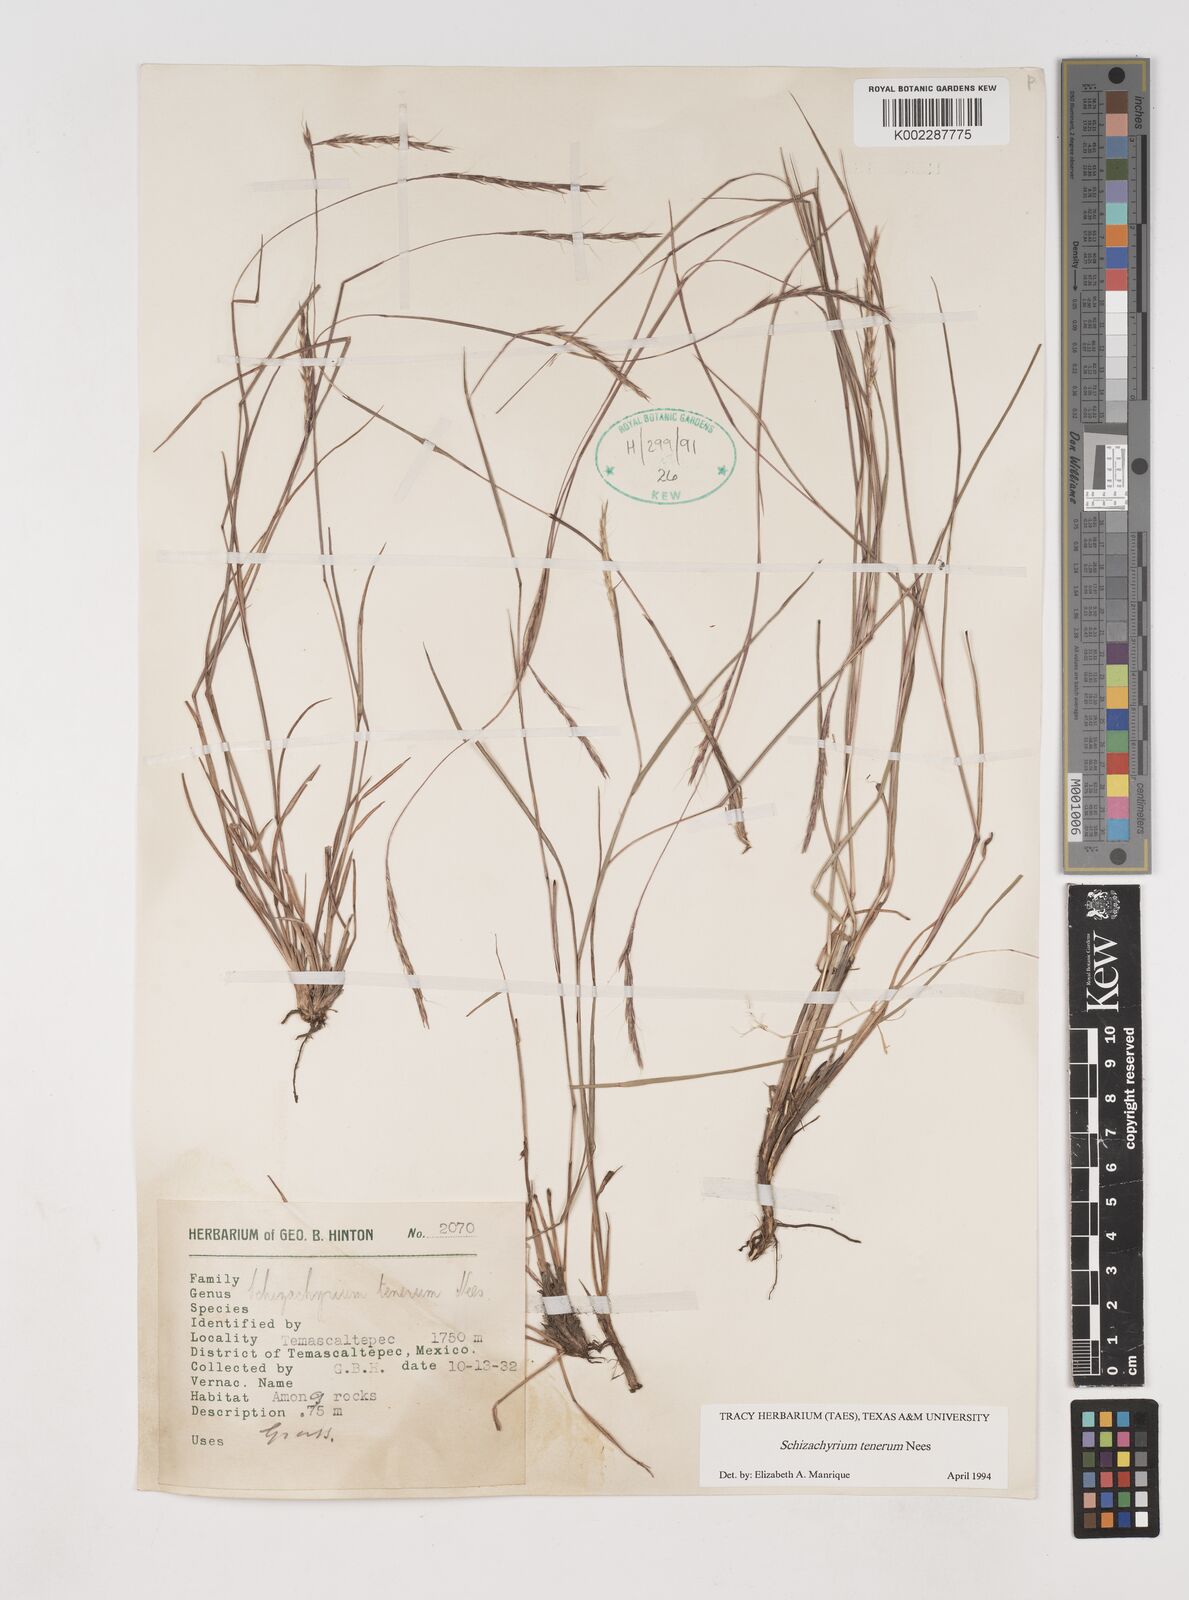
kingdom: Plantae
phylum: Tracheophyta
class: Liliopsida
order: Poales
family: Poaceae
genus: Andropogon
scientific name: Andropogon tener
